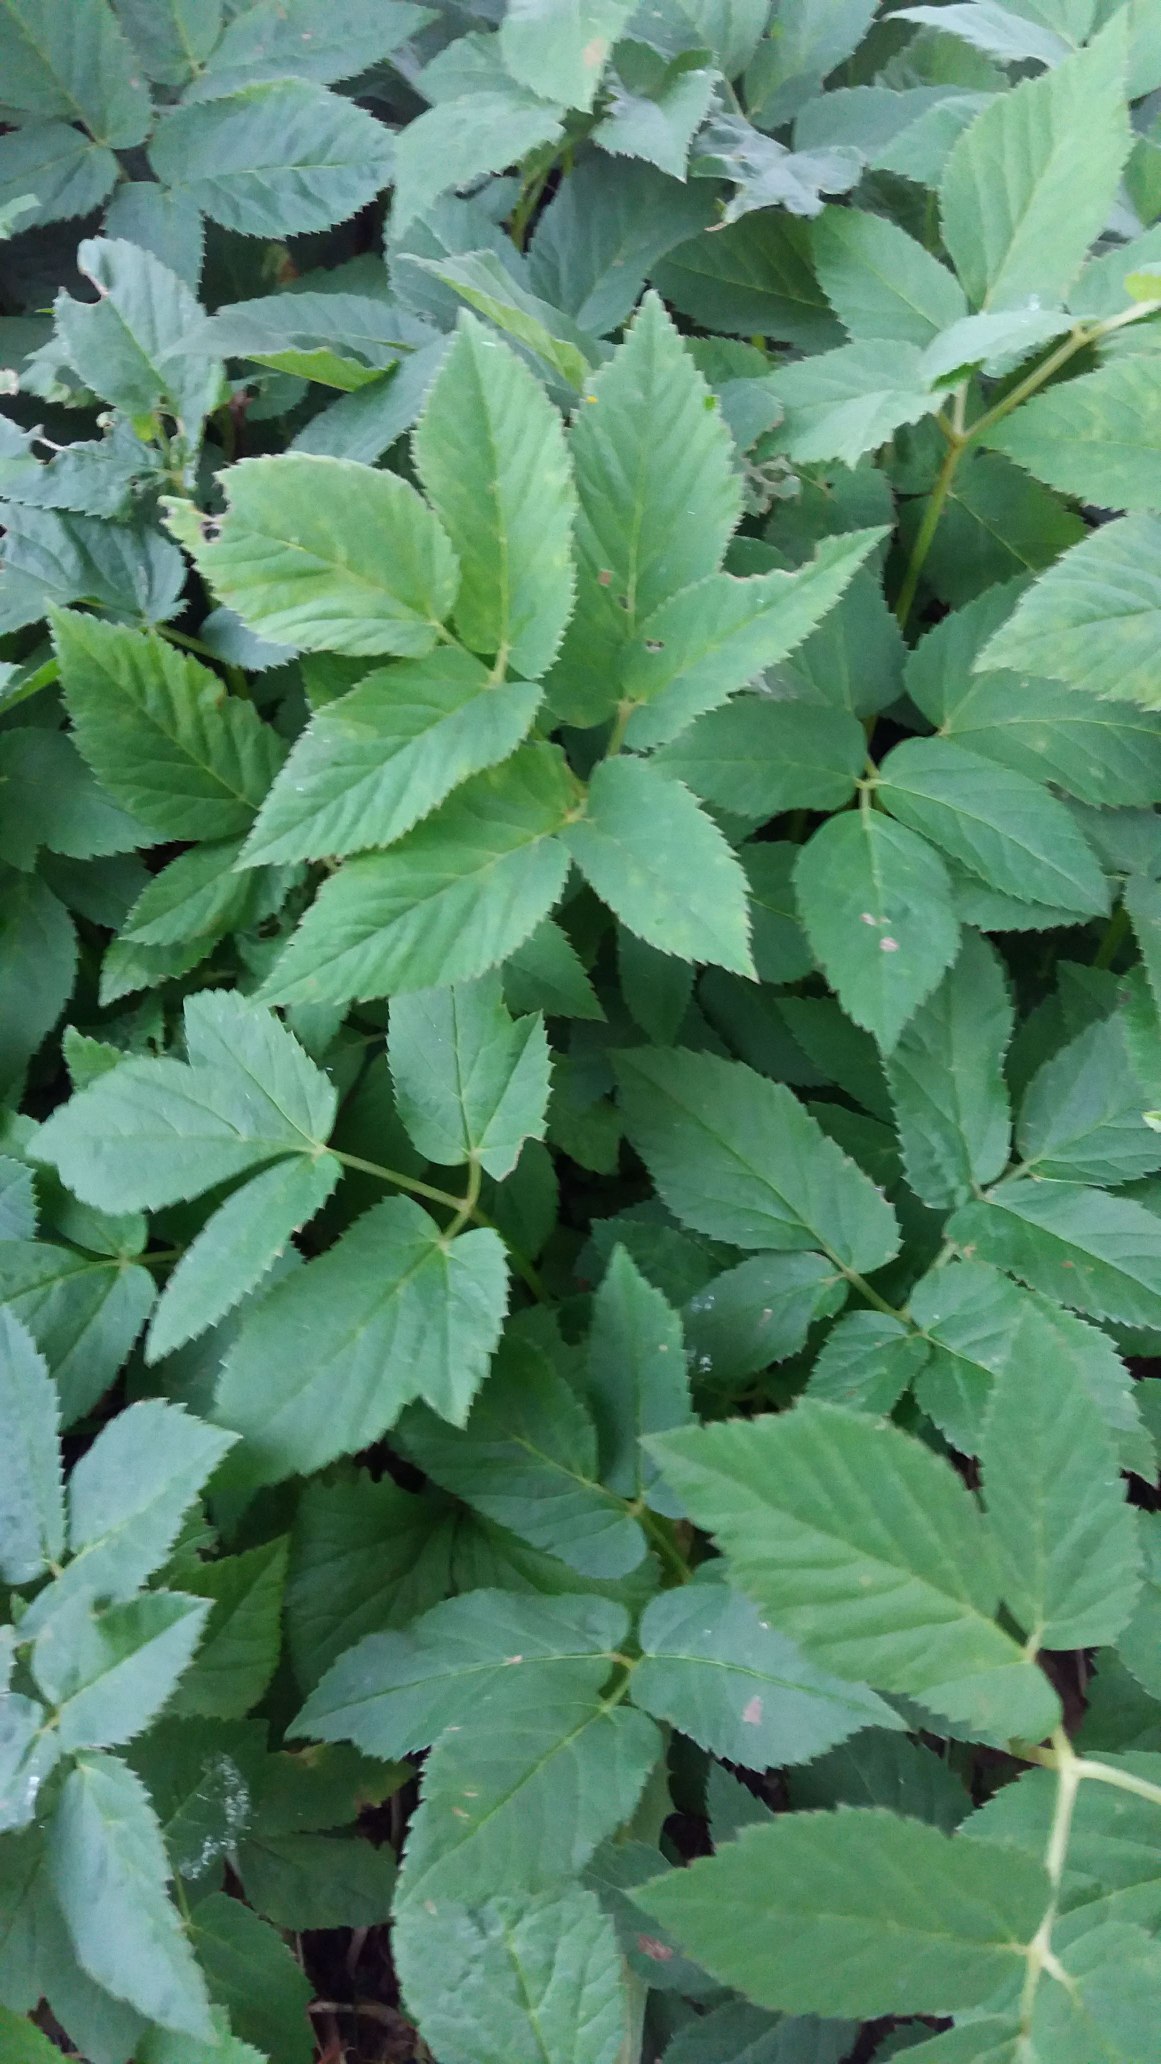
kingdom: Plantae
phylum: Tracheophyta
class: Magnoliopsida
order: Apiales
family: Apiaceae
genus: Aegopodium
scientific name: Aegopodium podagraria
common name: Skvalderkål
